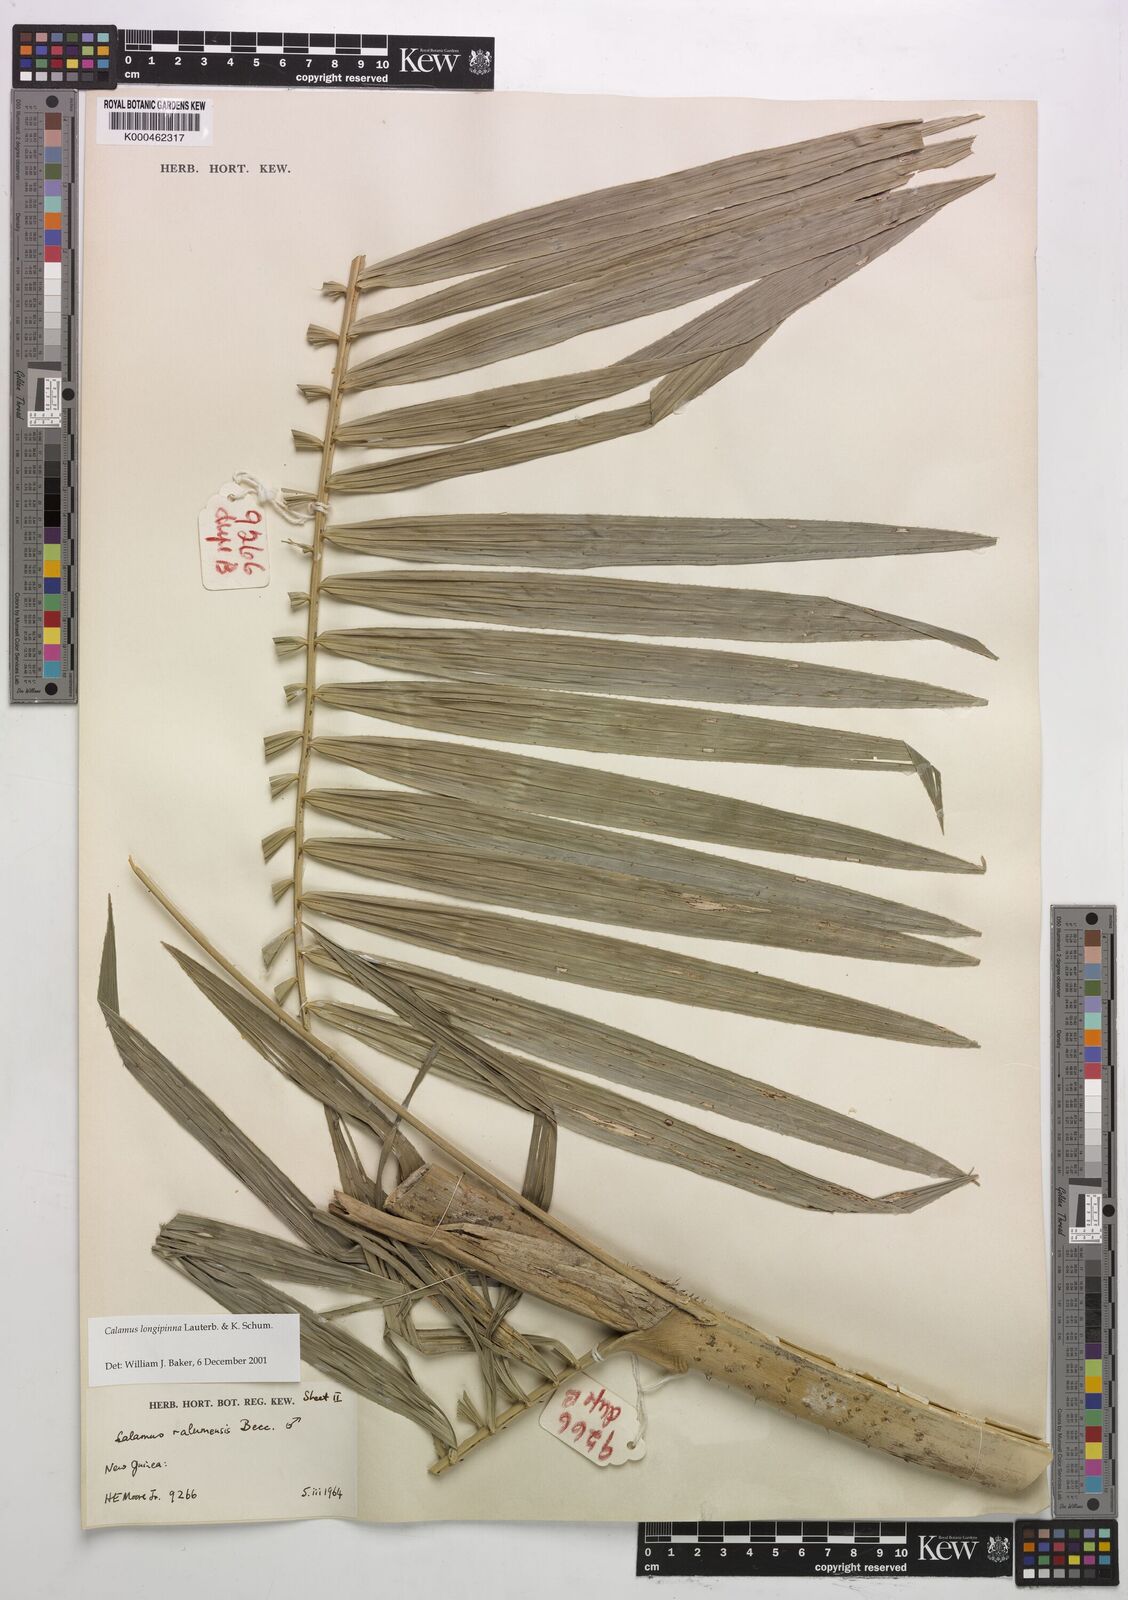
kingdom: Plantae
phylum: Tracheophyta
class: Liliopsida
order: Arecales
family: Arecaceae
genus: Calamus
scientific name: Calamus longipinna
